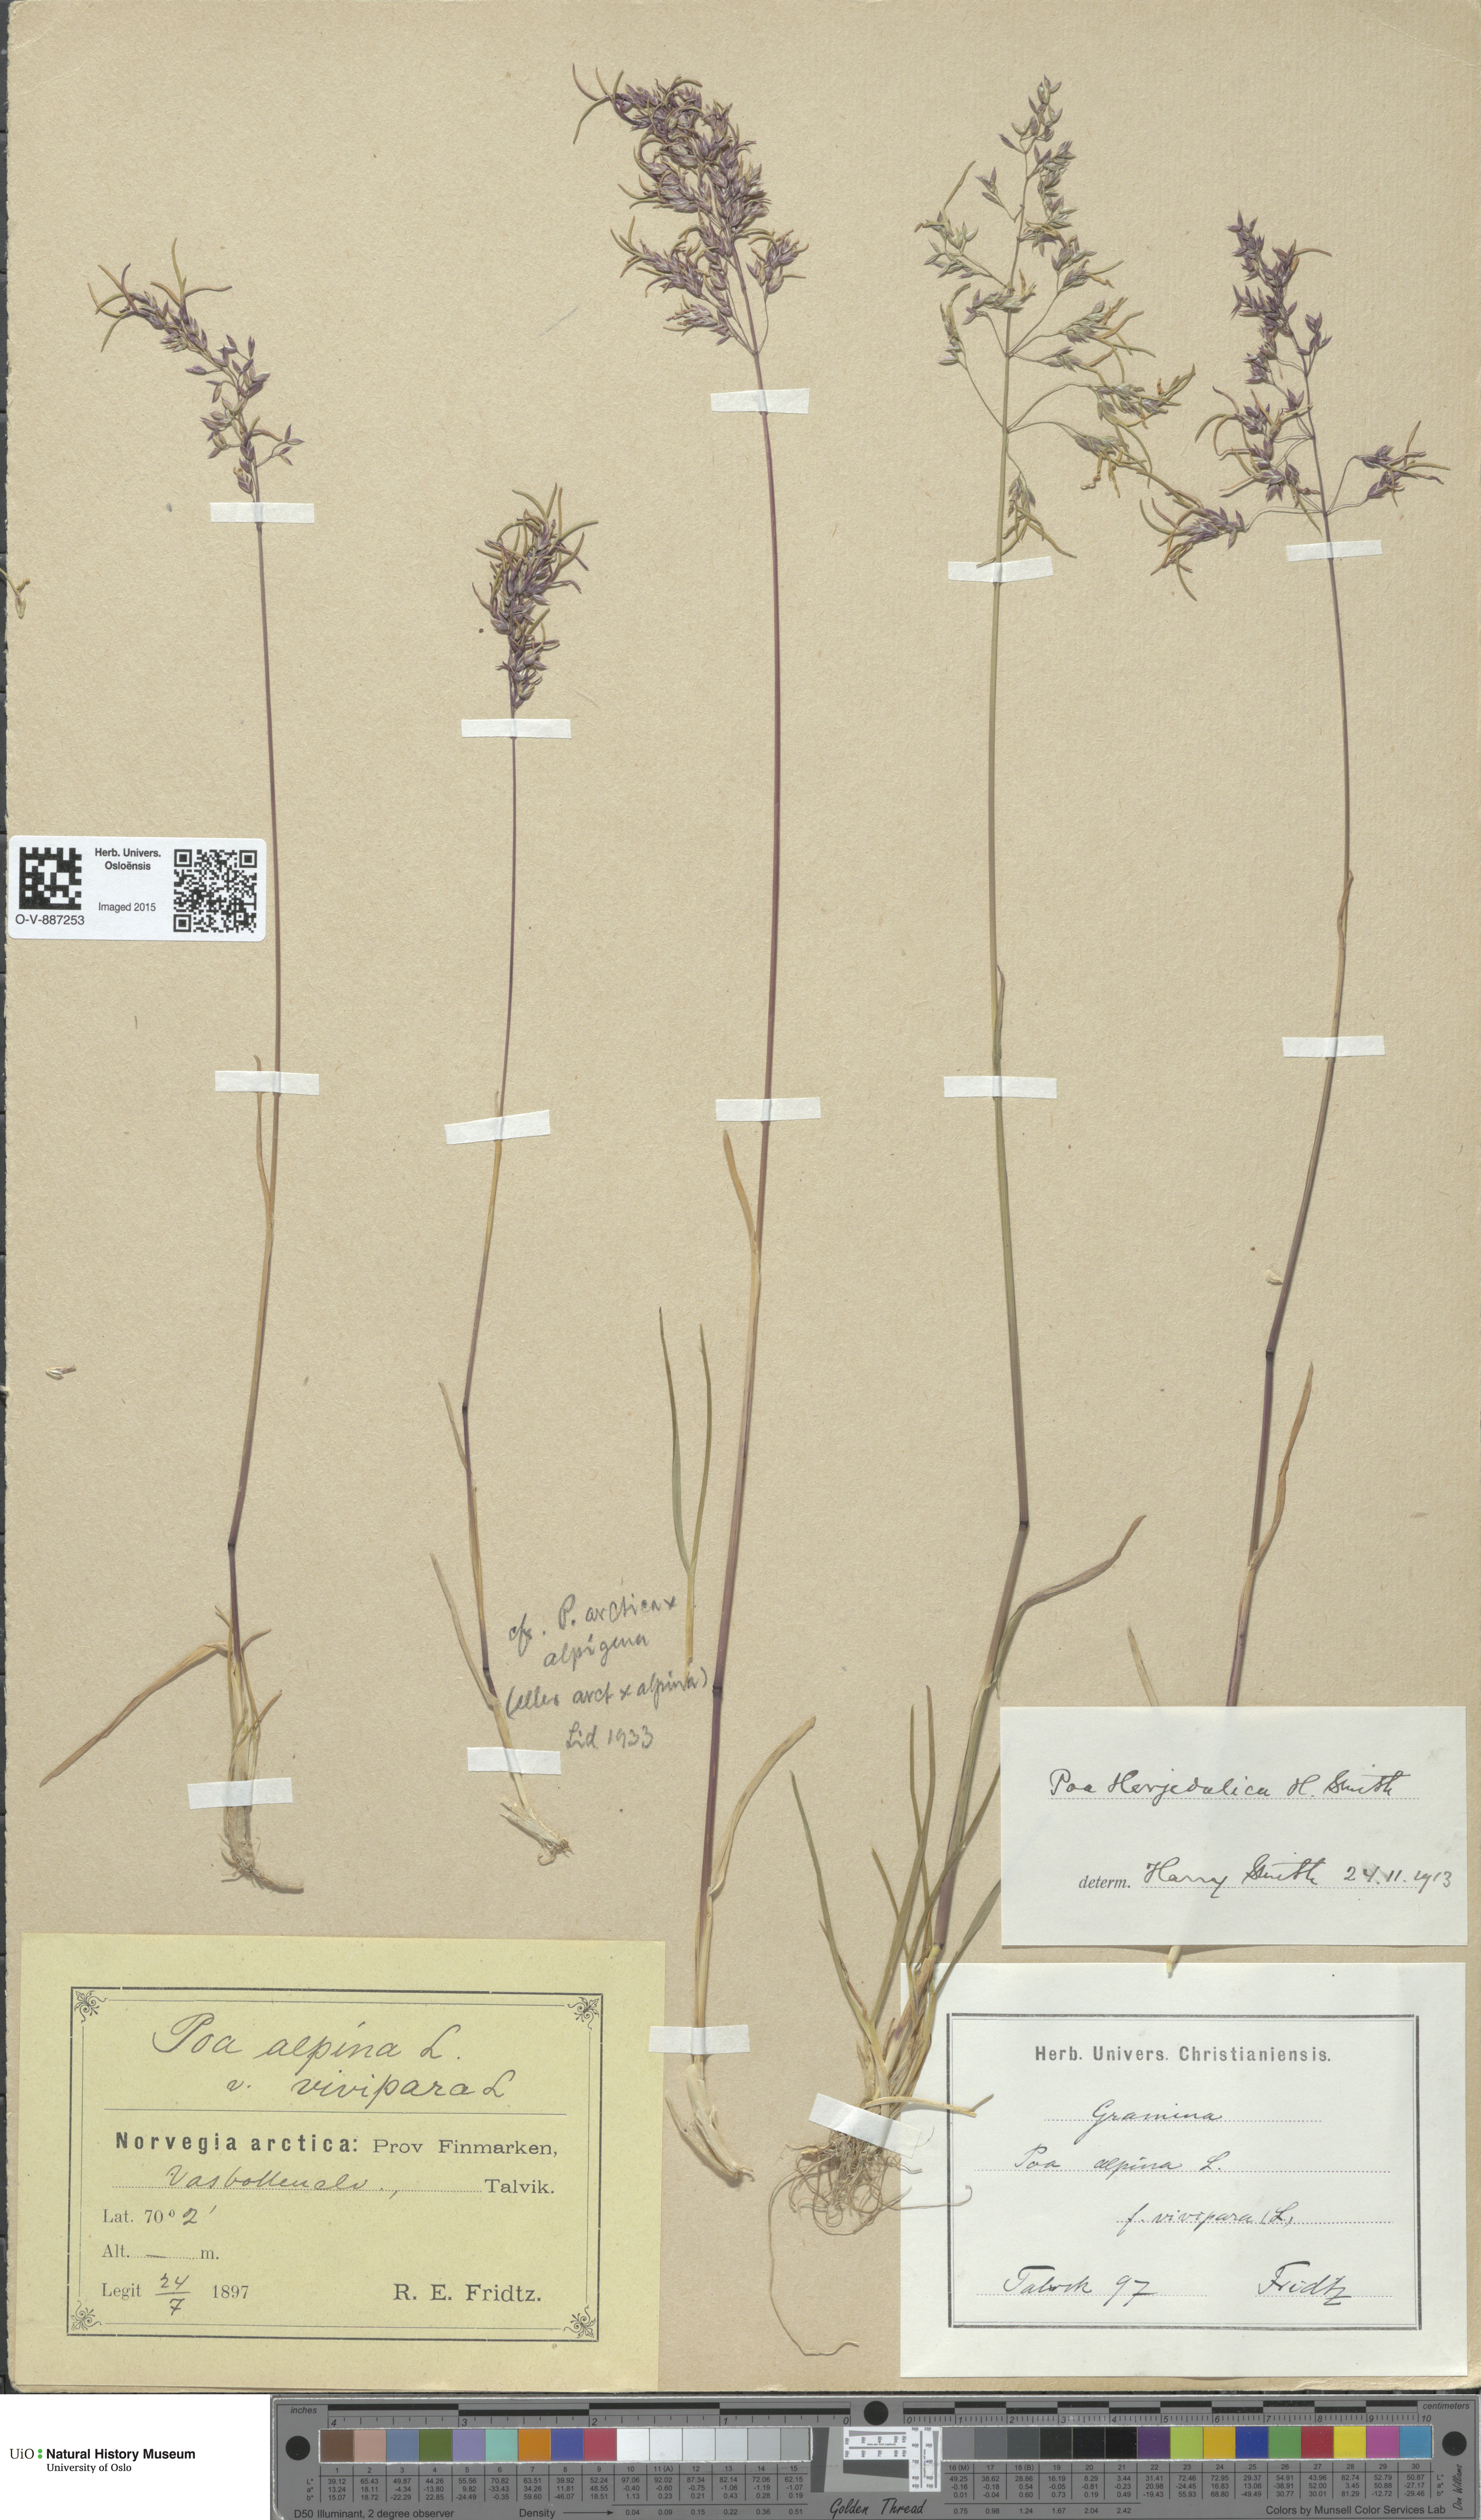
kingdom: Plantae
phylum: Tracheophyta
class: Liliopsida
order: Poales
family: Poaceae
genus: Poa
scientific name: Poa herjedalica
